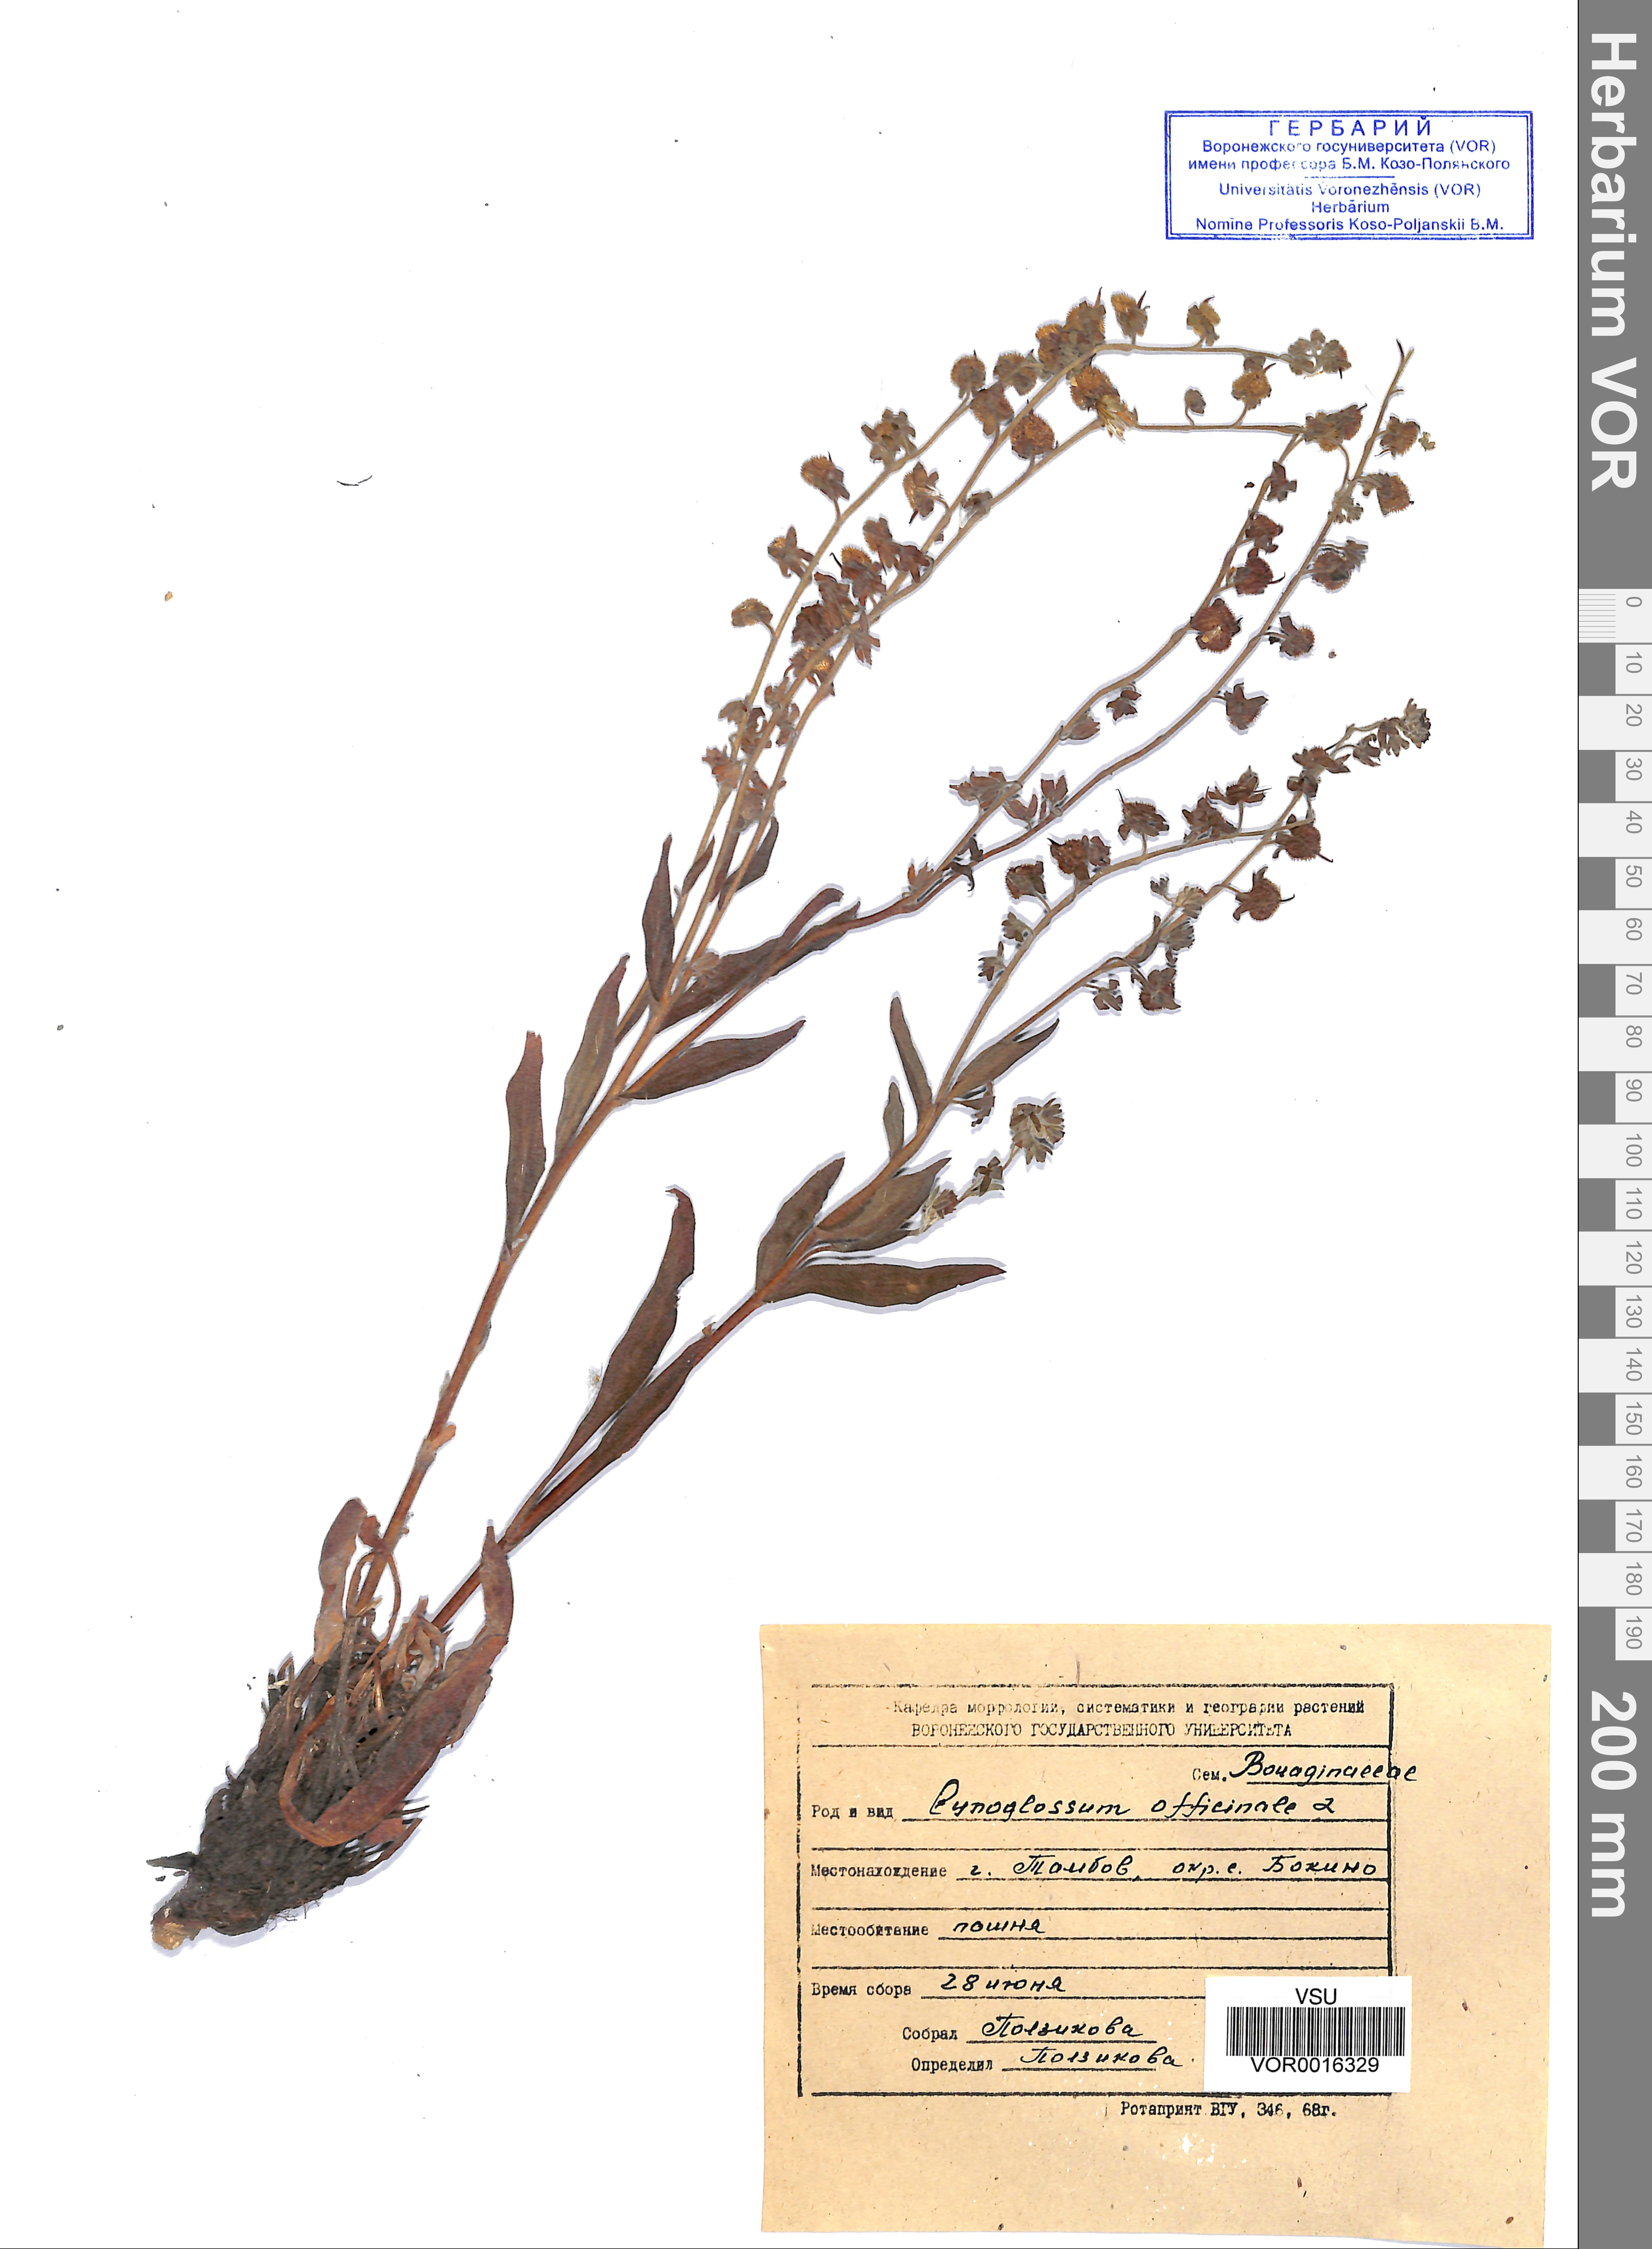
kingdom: Plantae
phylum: Tracheophyta
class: Magnoliopsida
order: Boraginales
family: Boraginaceae
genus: Cynoglossum
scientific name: Cynoglossum officinale
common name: Hound's-tongue
